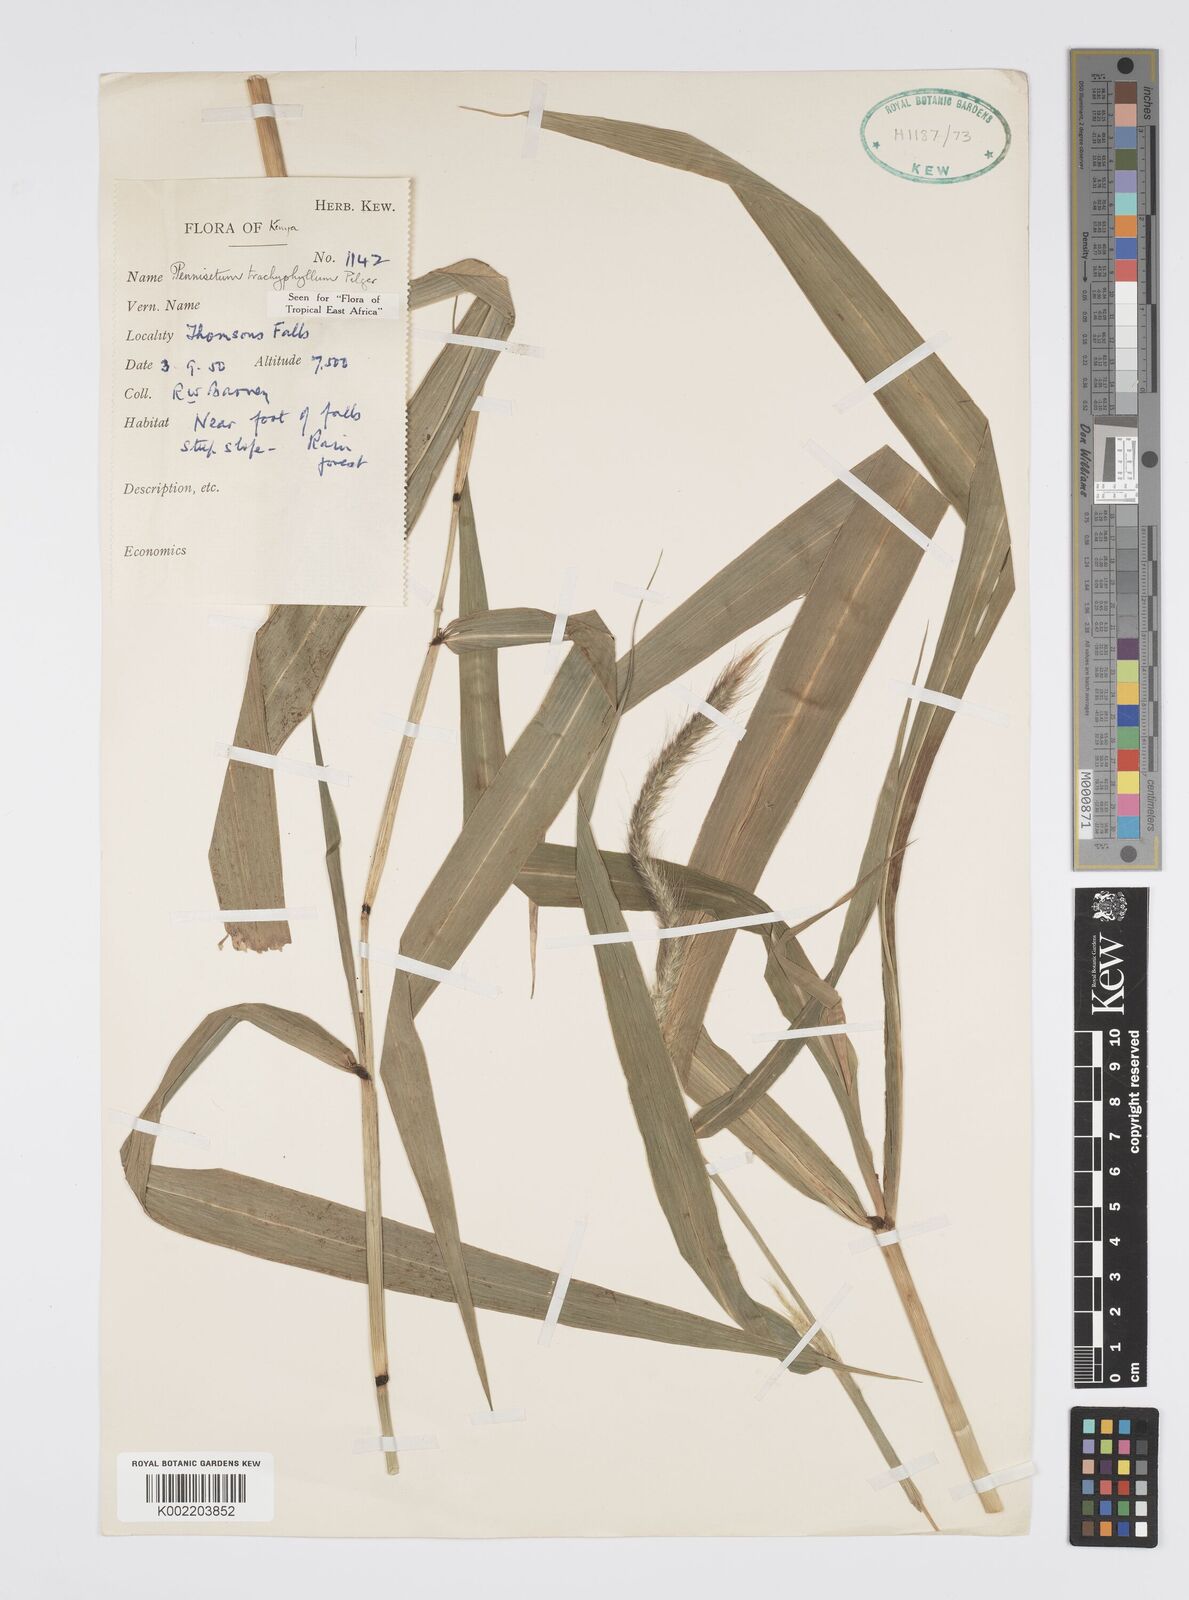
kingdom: Plantae
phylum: Tracheophyta
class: Liliopsida
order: Poales
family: Poaceae
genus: Cenchrus
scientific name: Cenchrus trachyphyllus
